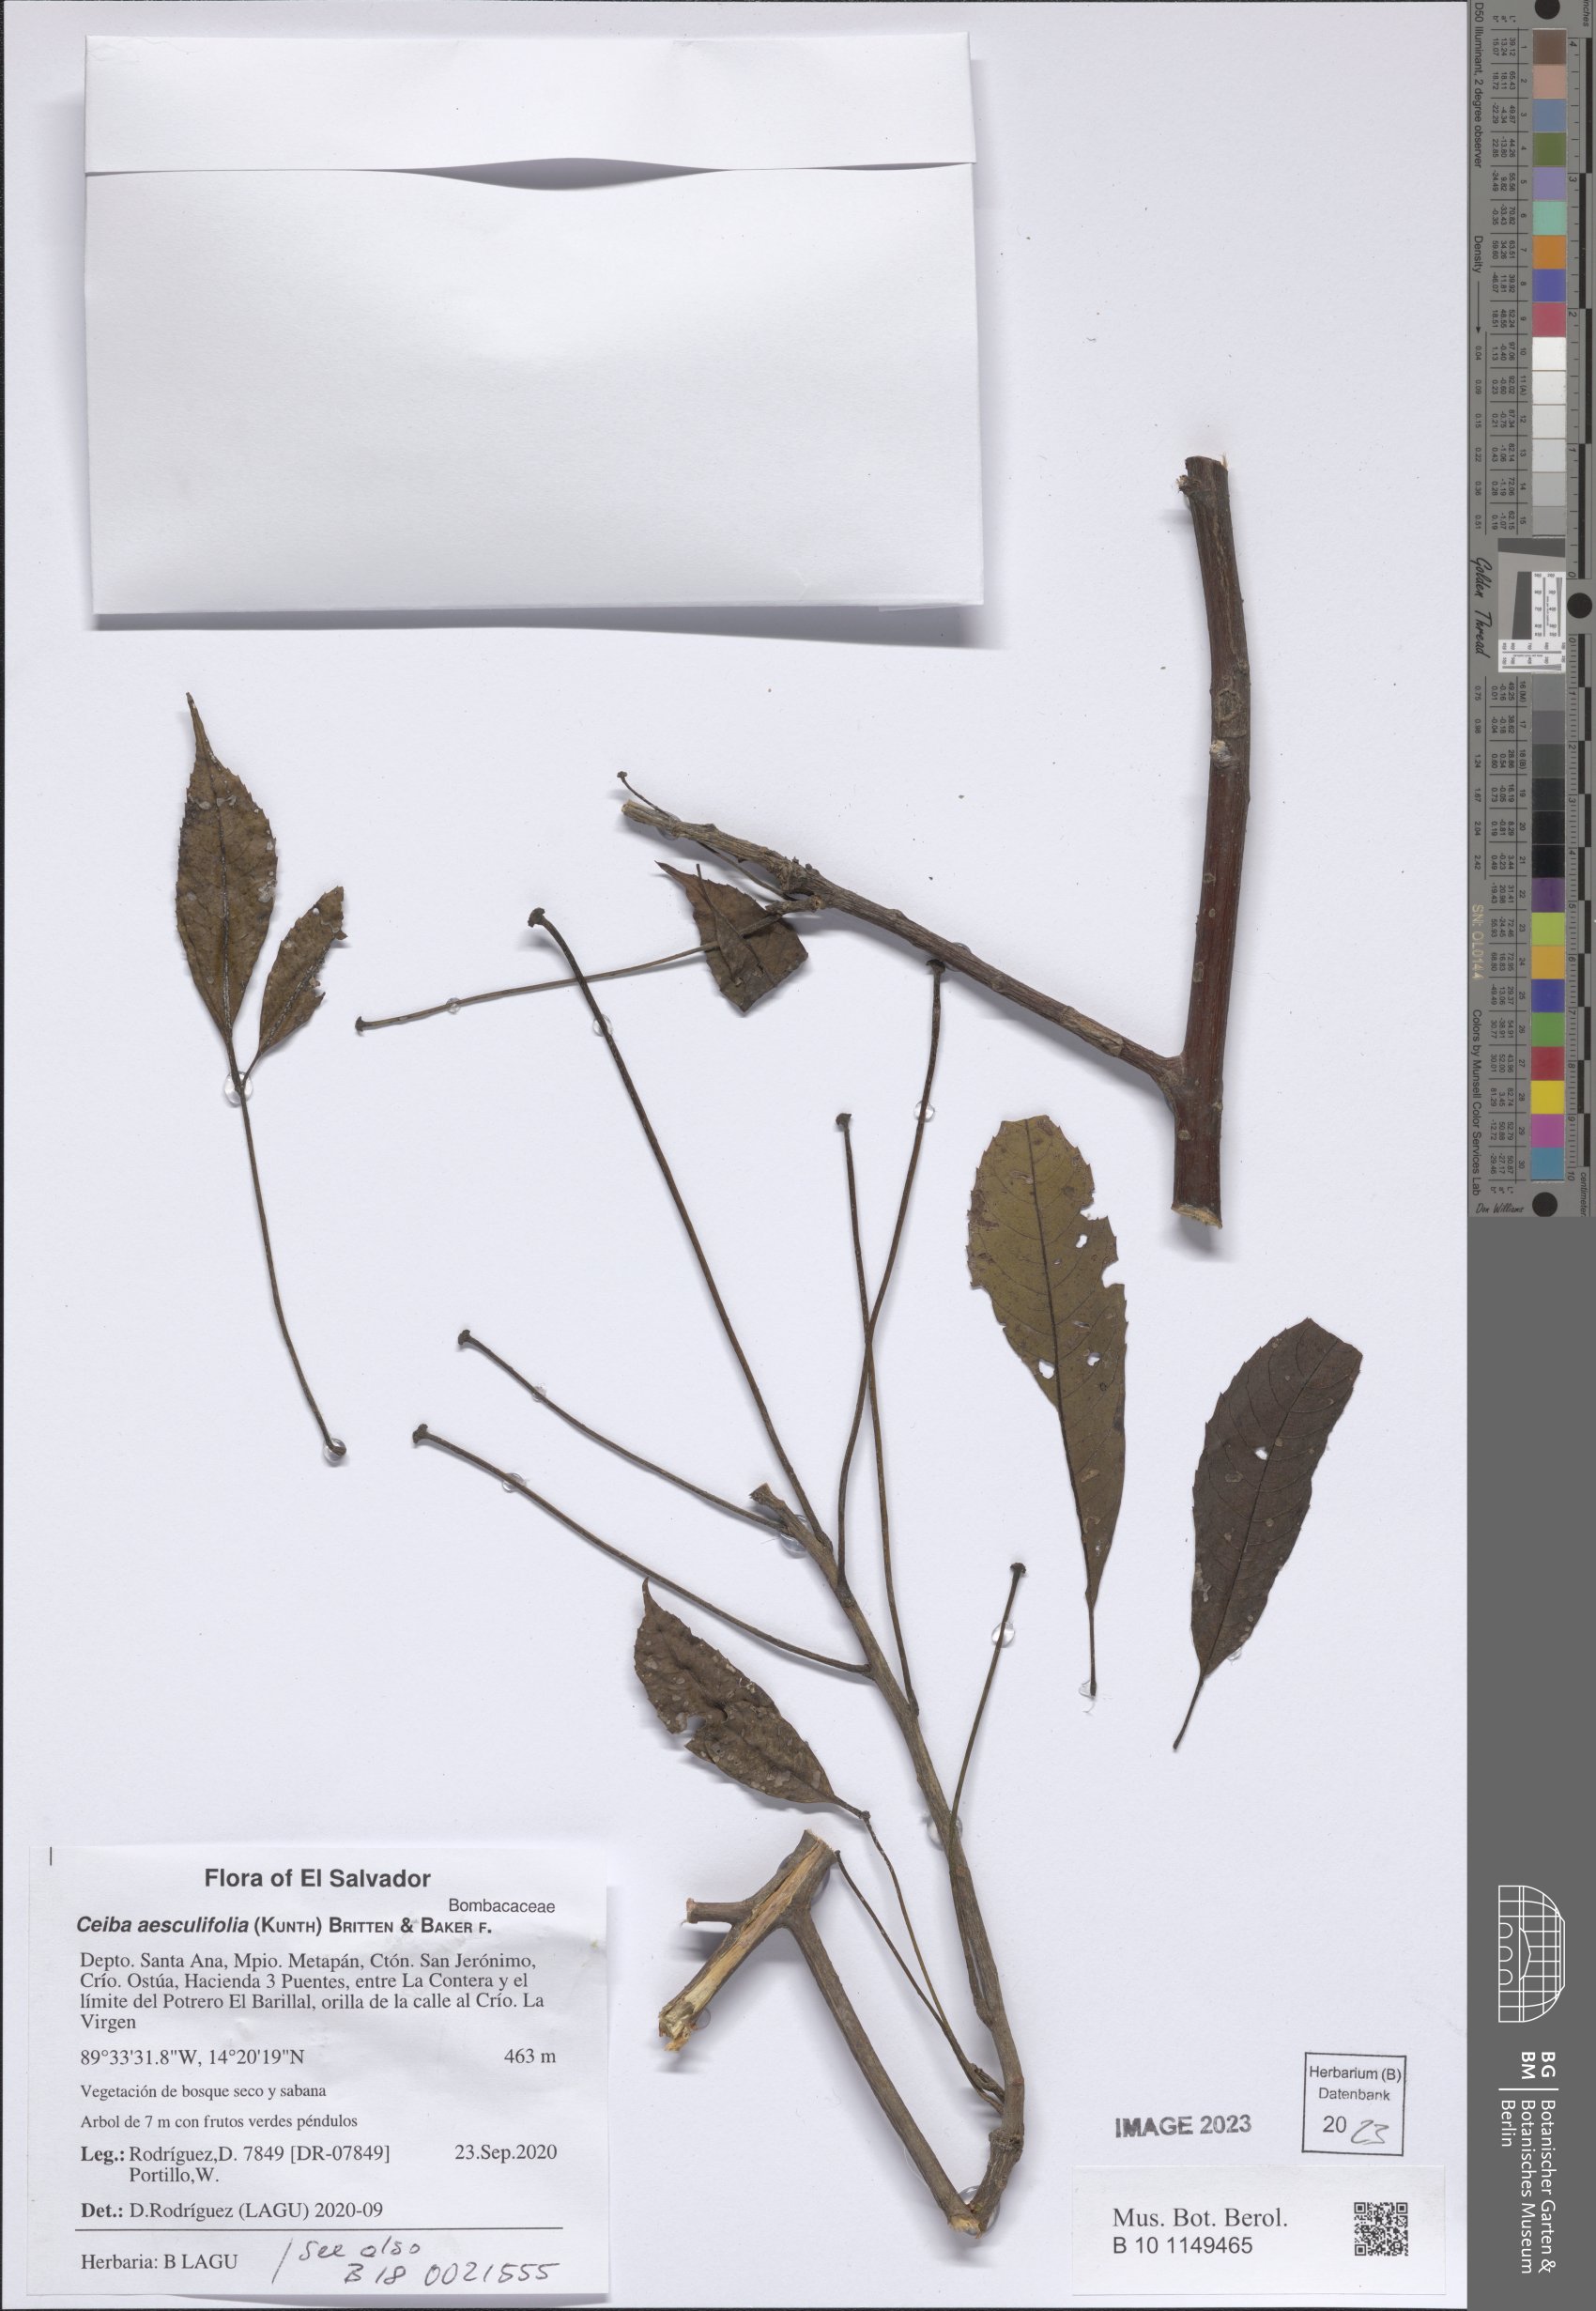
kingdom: Plantae
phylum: Tracheophyta
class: Magnoliopsida
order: Malvales
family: Malvaceae
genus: Ceiba
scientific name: Ceiba aesculifolia
